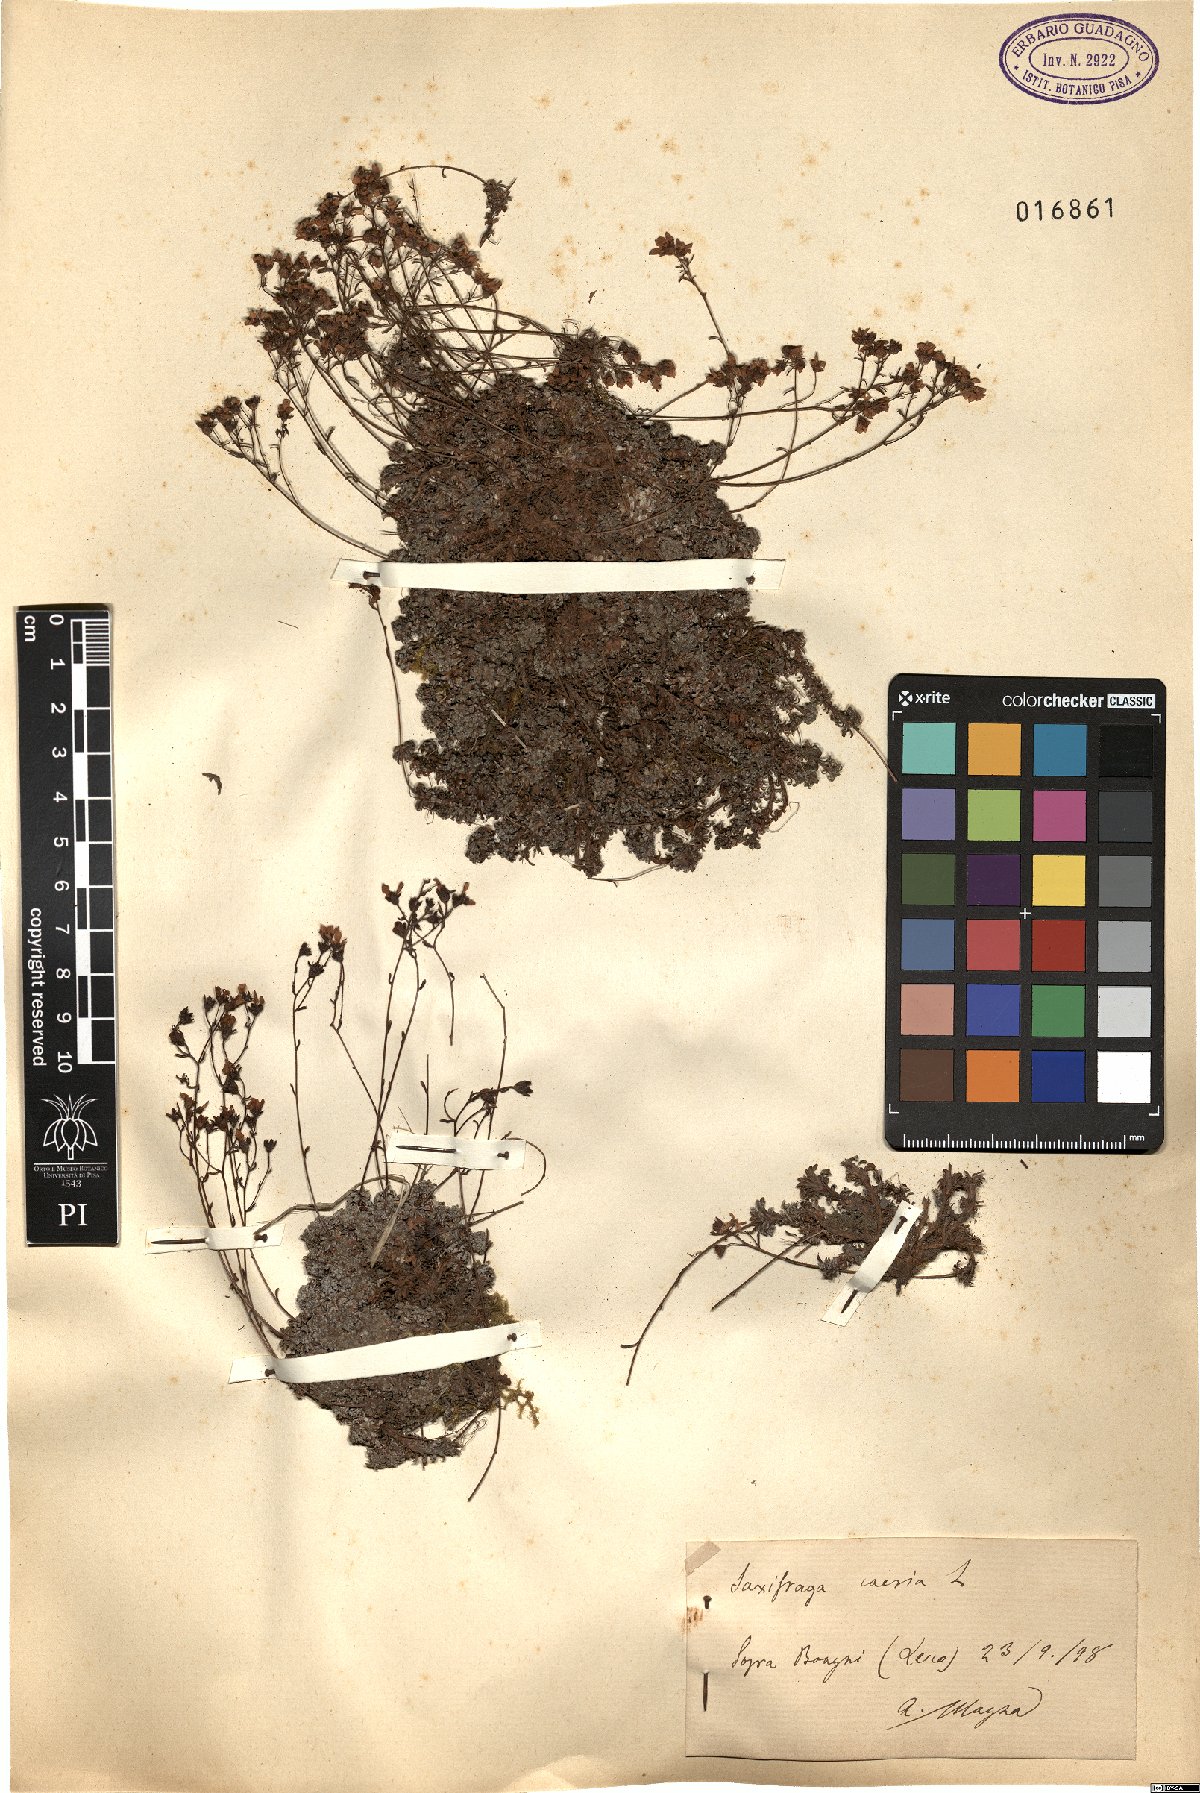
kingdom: Plantae
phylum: Tracheophyta
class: Magnoliopsida
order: Saxifragales
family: Saxifragaceae
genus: Saxifraga
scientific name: Saxifraga caesia
